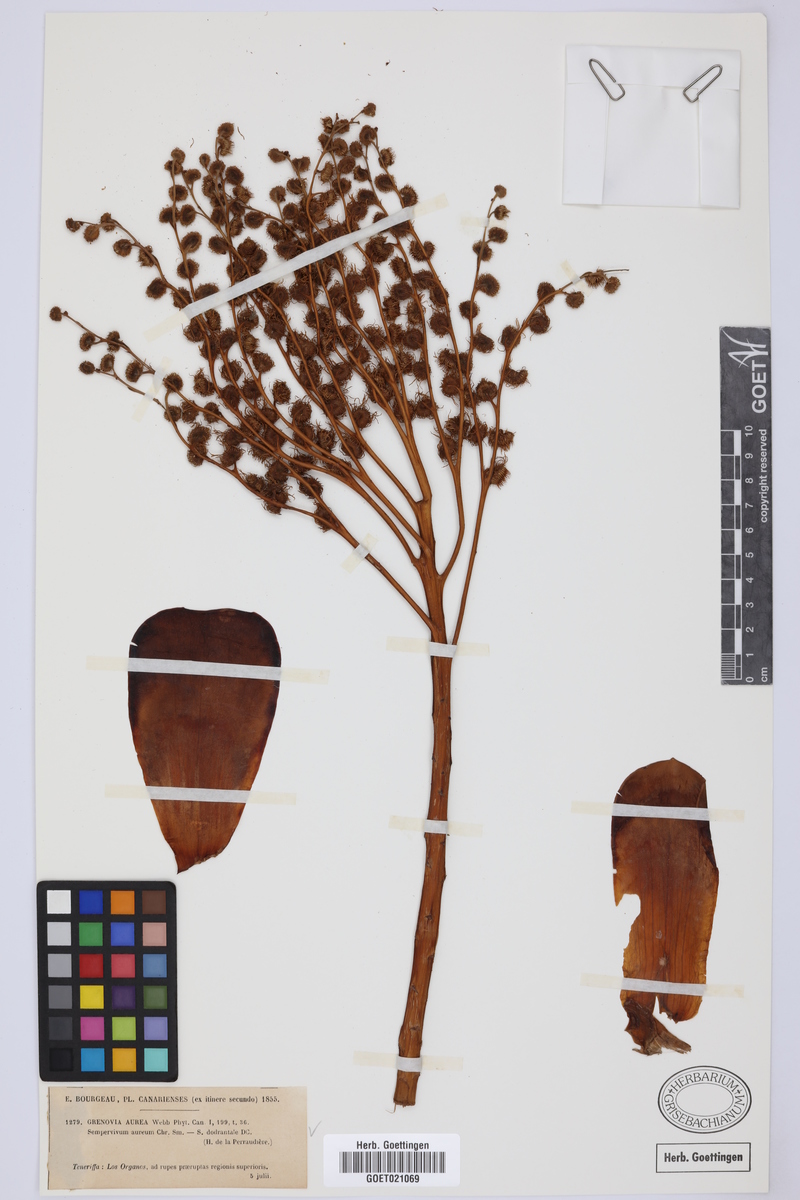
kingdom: Plantae
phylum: Tracheophyta
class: Magnoliopsida
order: Saxifragales
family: Crassulaceae
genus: Aeonium
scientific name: Aeonium aureum
